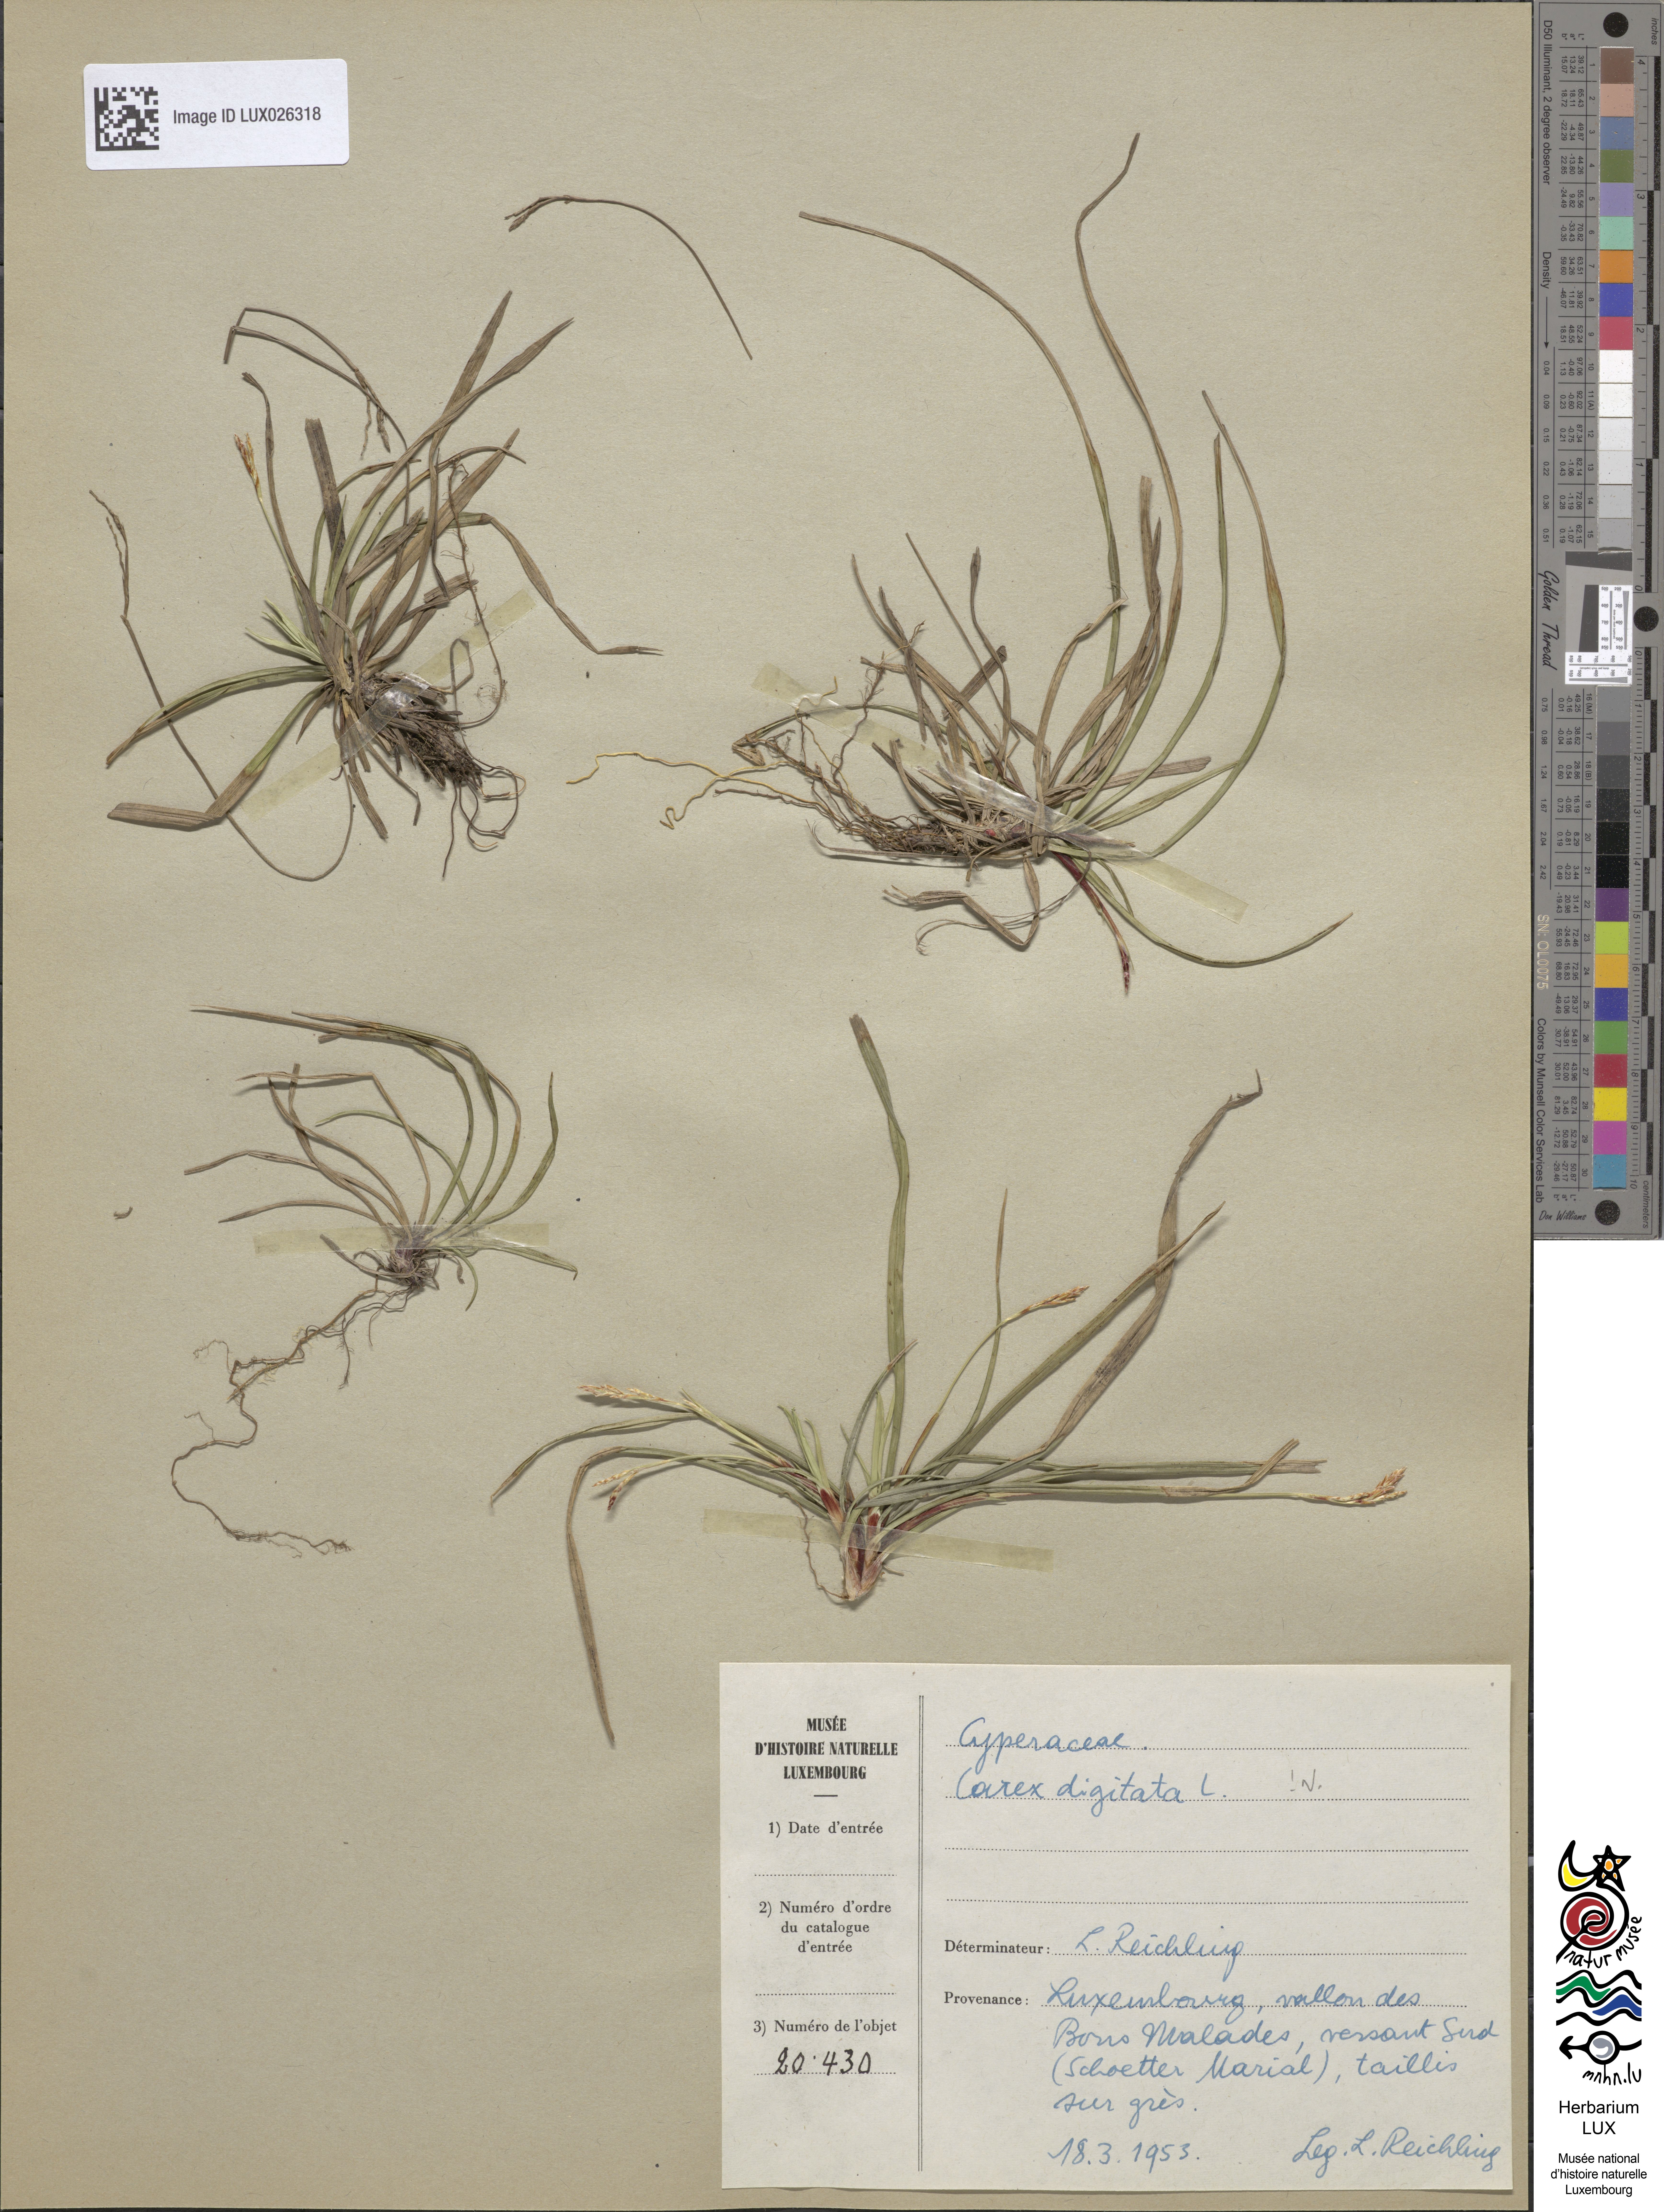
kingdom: Plantae
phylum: Tracheophyta
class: Liliopsida
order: Poales
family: Cyperaceae
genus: Carex
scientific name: Carex digitata
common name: Fingered sedge
